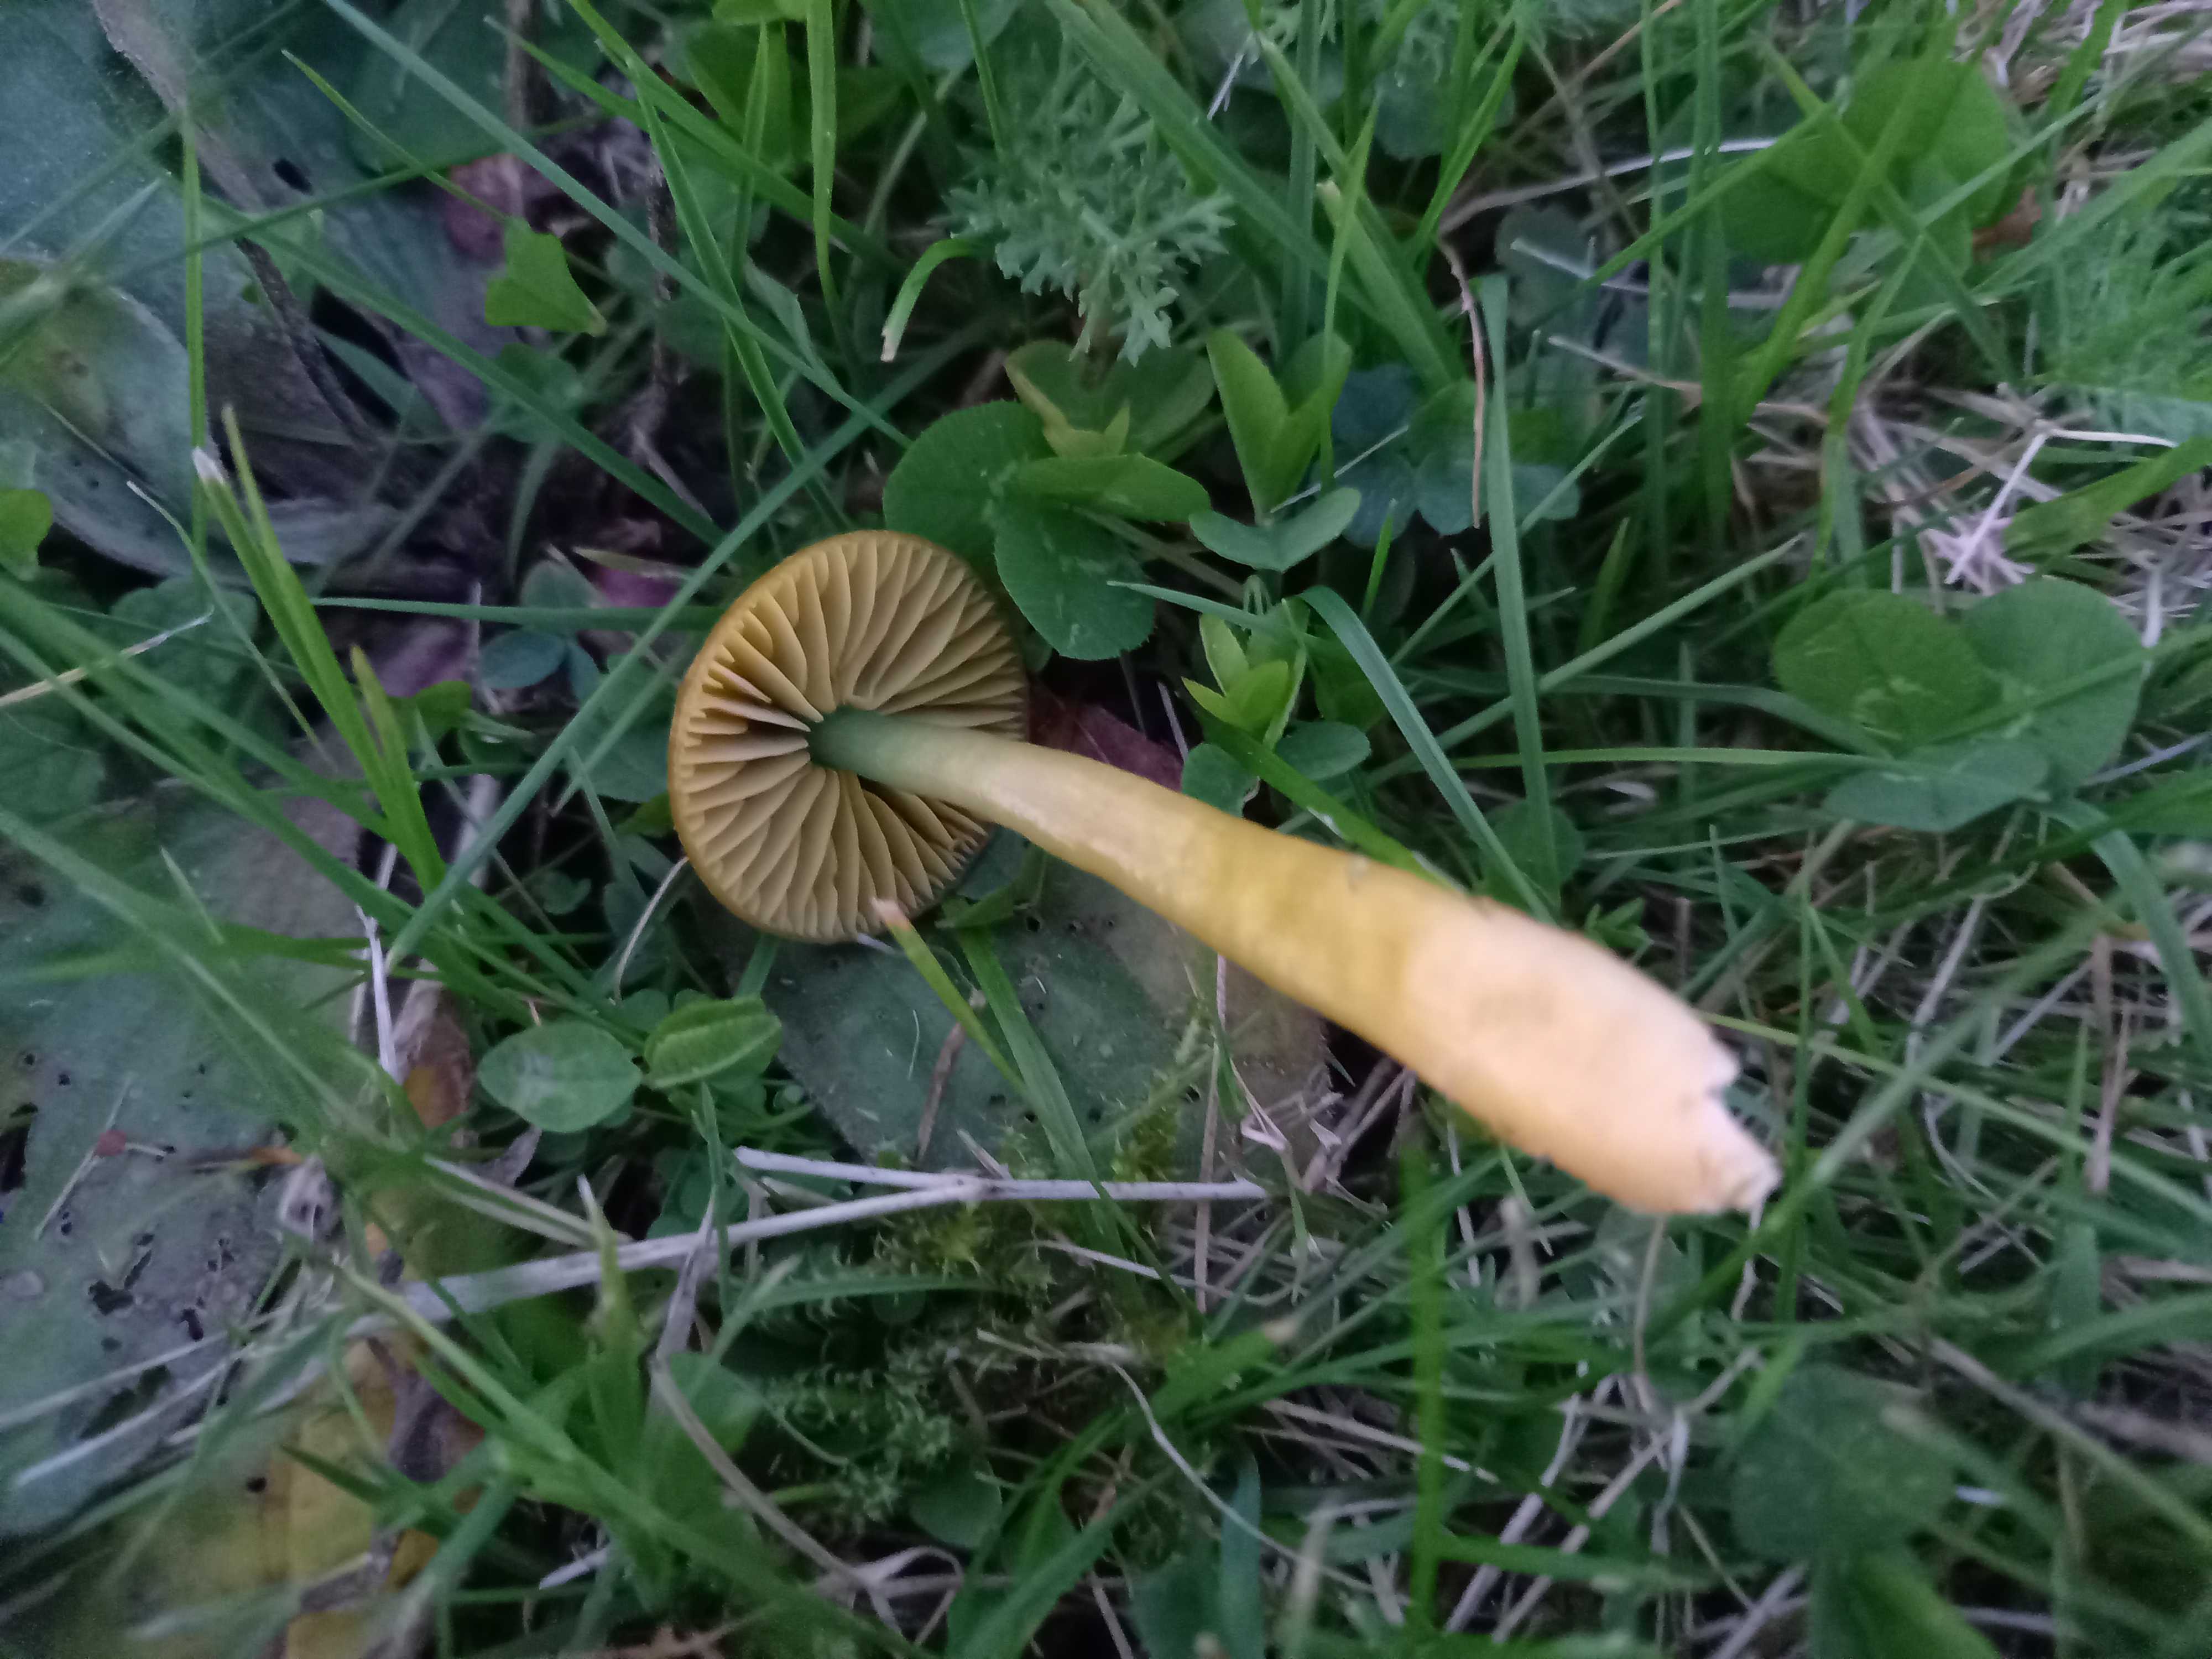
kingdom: Fungi
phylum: Basidiomycota
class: Agaricomycetes
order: Agaricales
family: Hygrophoraceae
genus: Gliophorus
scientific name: Gliophorus psittacinus
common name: papegøje-vokshat
